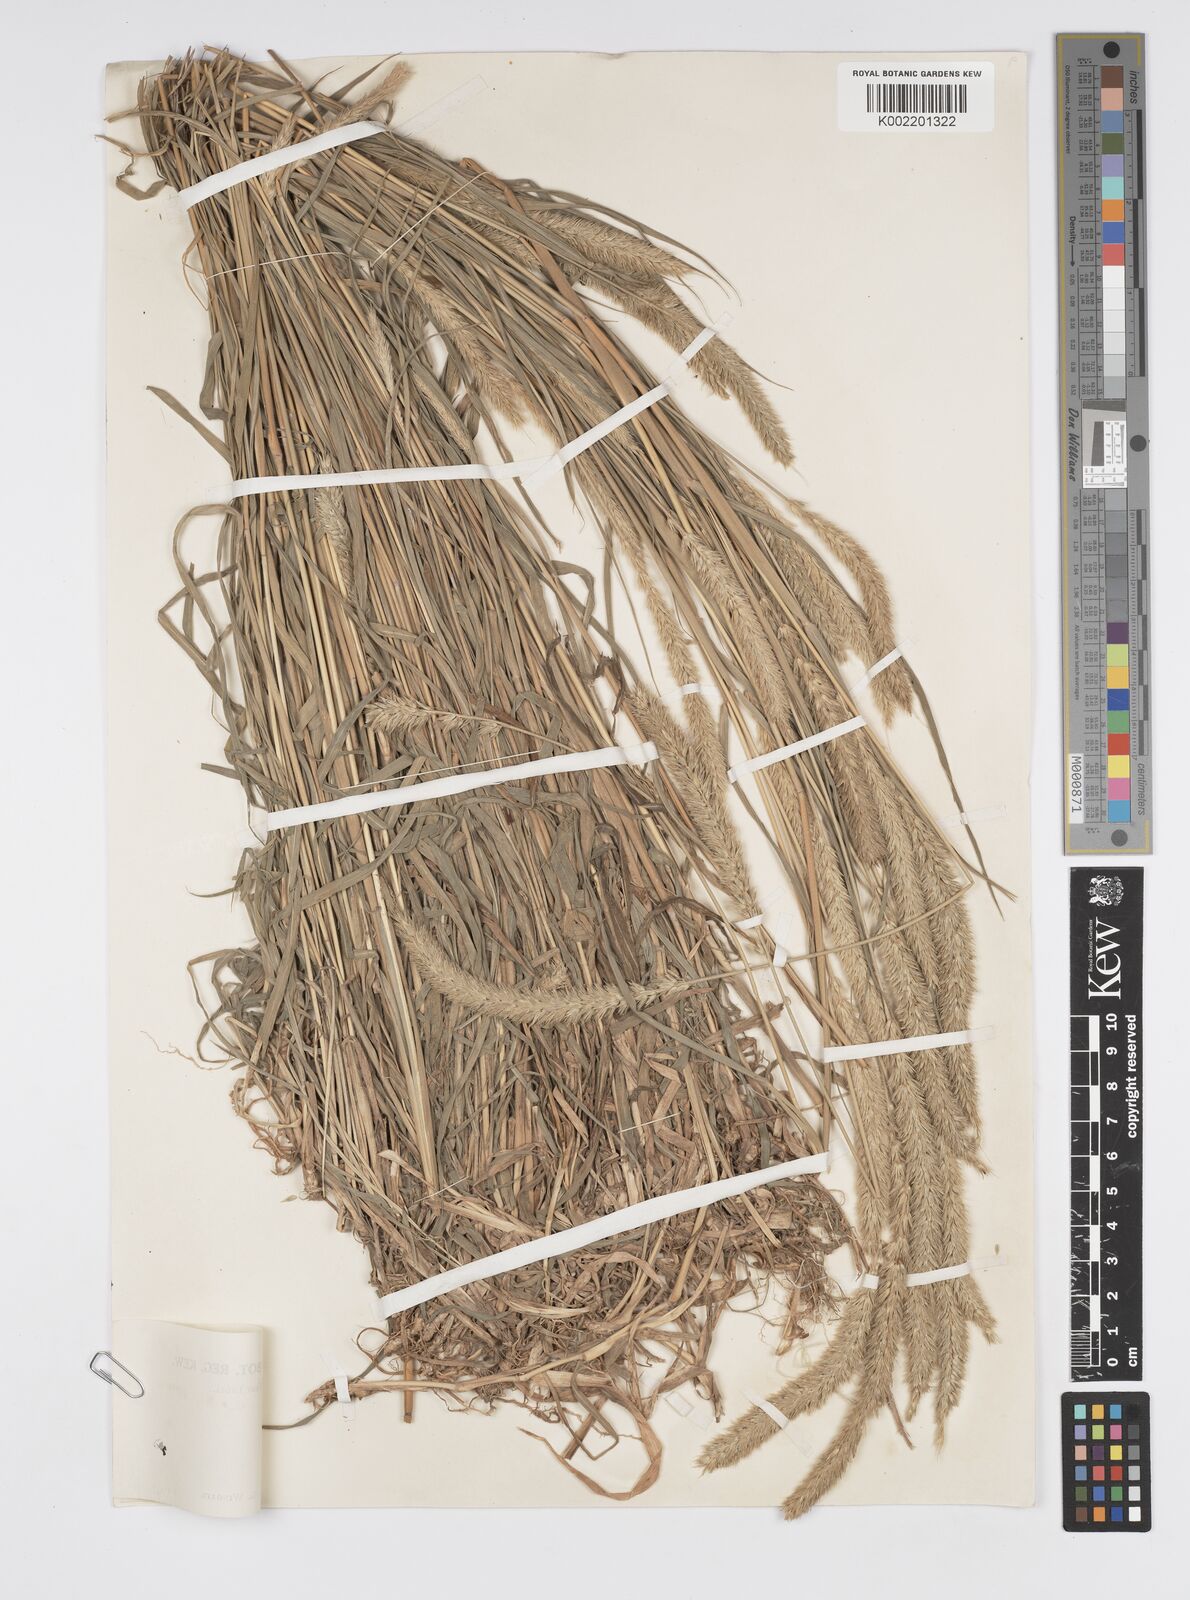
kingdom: Plantae
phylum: Tracheophyta
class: Liliopsida
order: Poales
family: Poaceae
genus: Cenchrus
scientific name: Cenchrus lanatus
